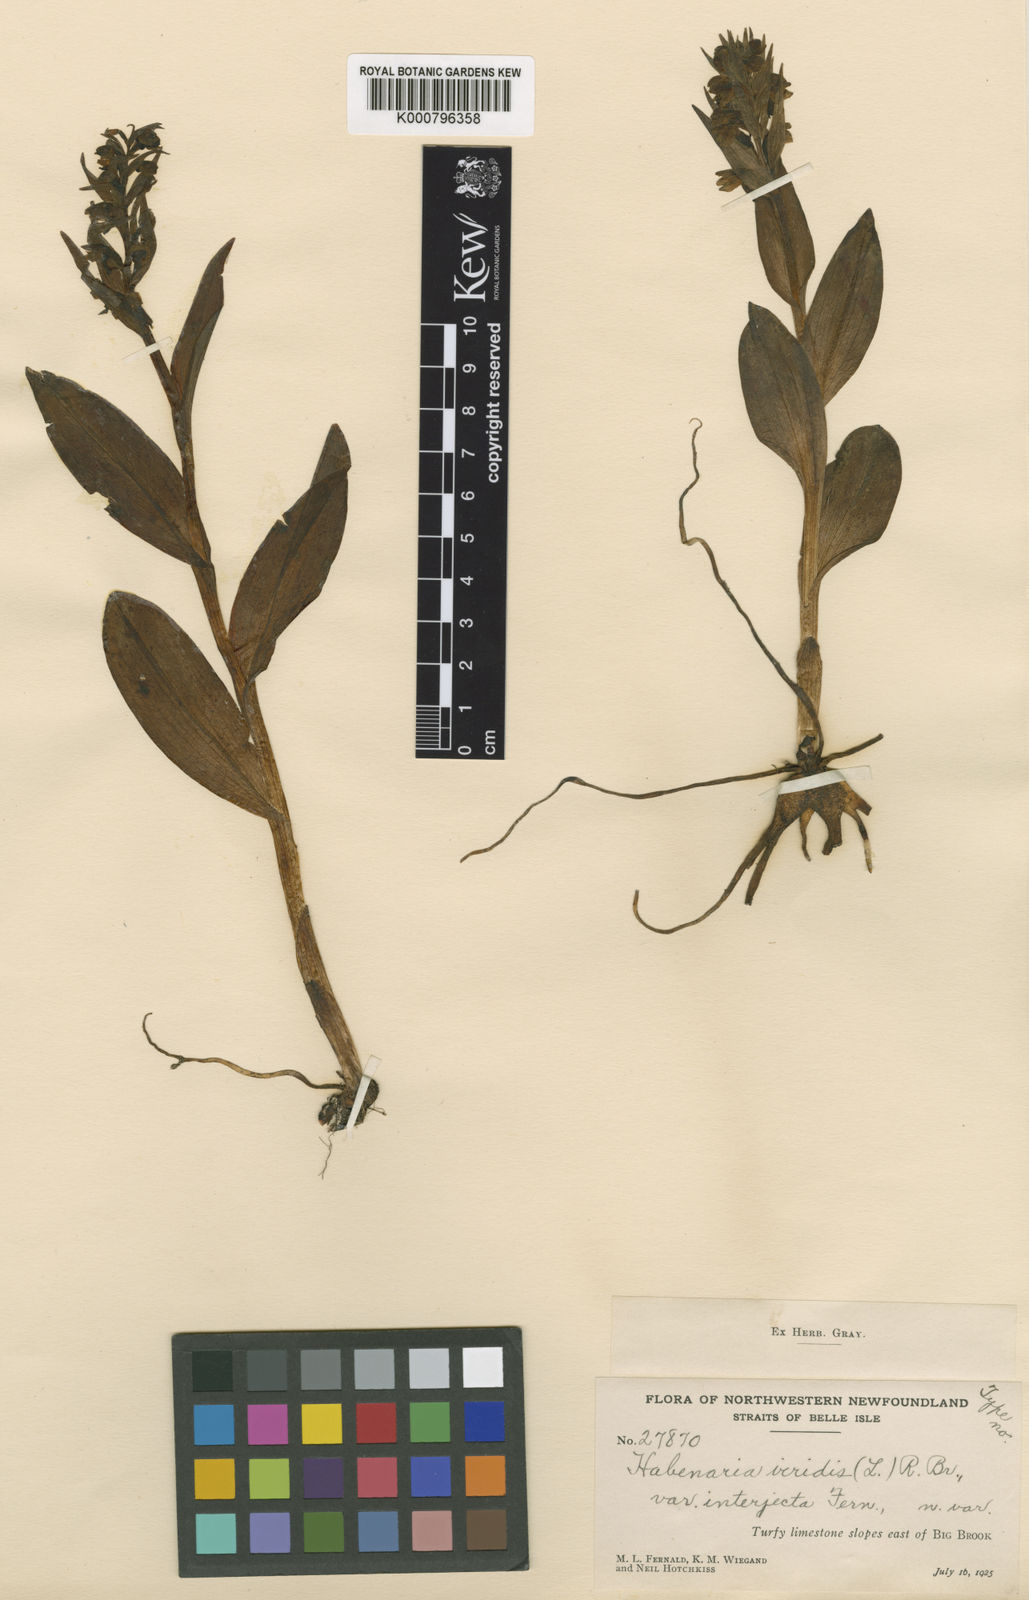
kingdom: Plantae
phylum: Tracheophyta
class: Liliopsida
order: Asparagales
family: Orchidaceae
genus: Dactylorhiza
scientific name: Dactylorhiza viridis
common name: Longbract frog orchid
